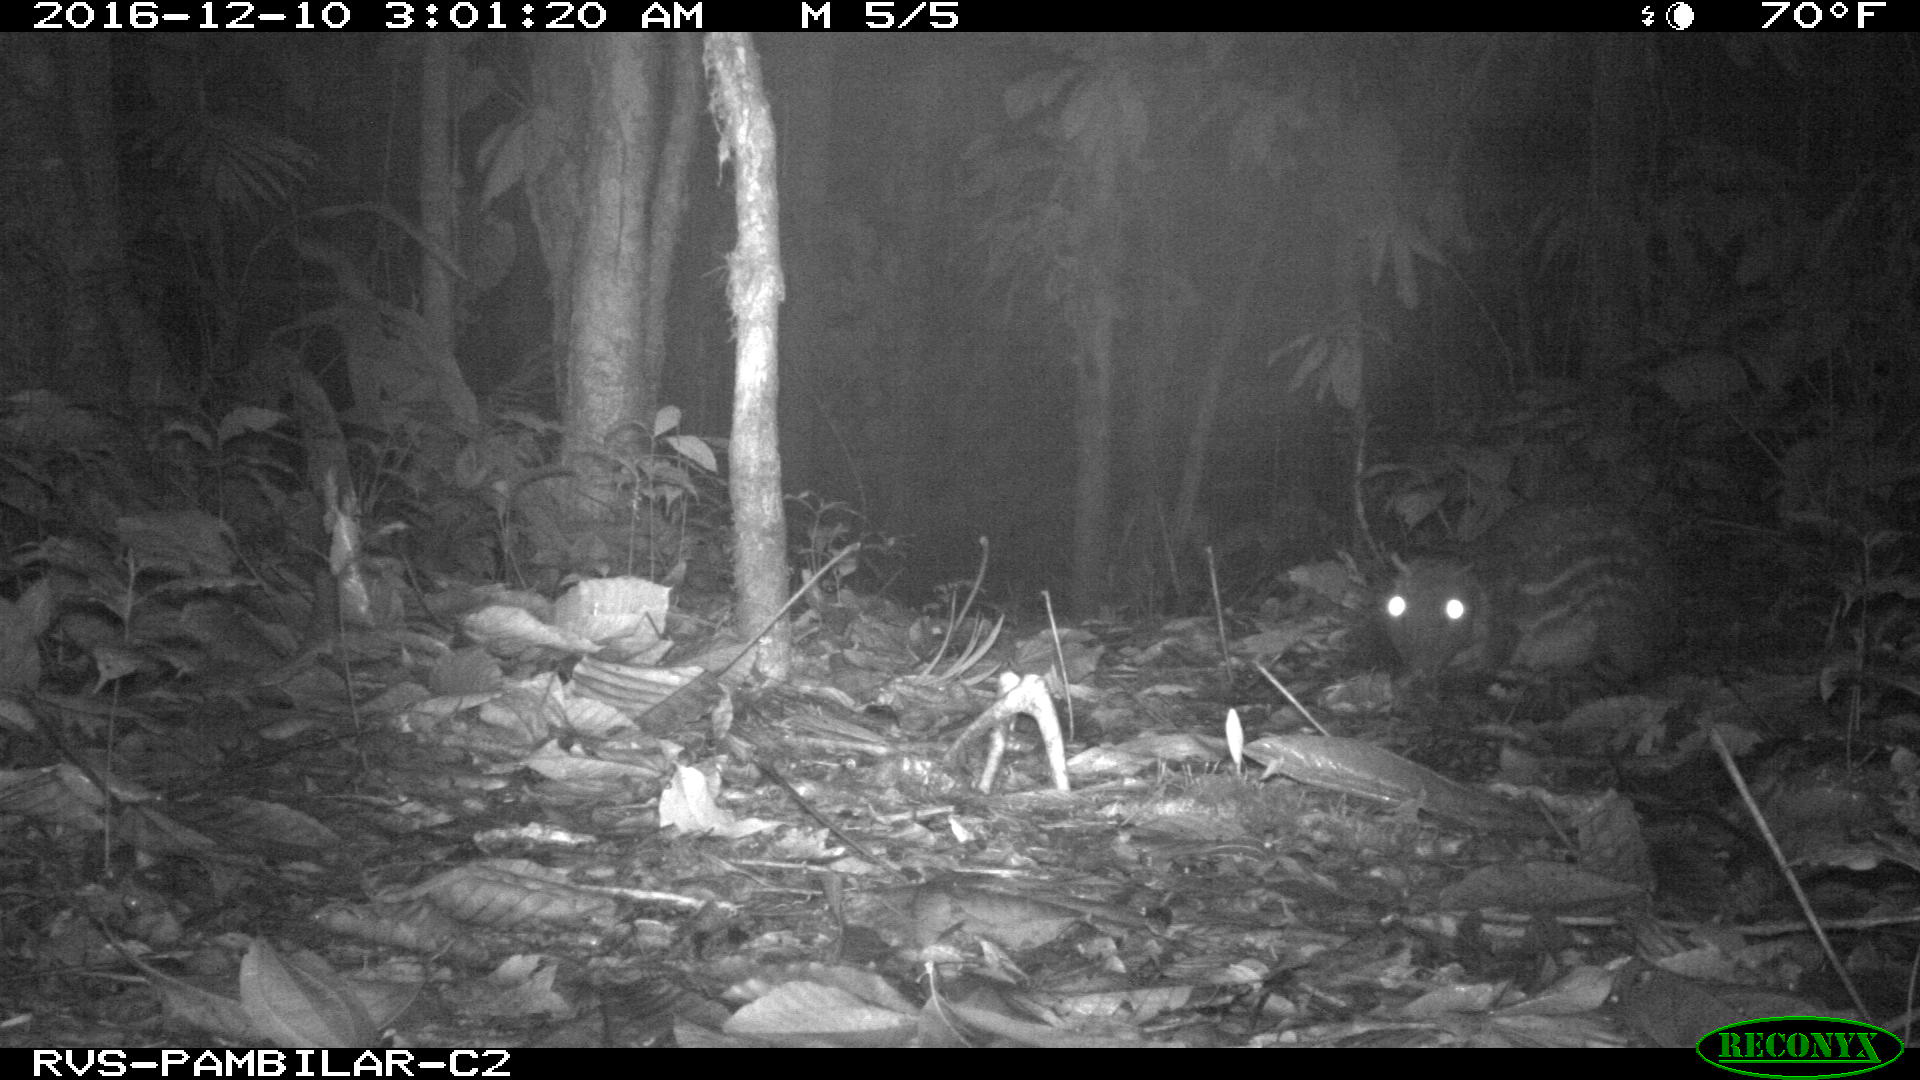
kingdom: Animalia
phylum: Chordata
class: Mammalia
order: Rodentia
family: Dasyproctidae
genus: Dasyprocta
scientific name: Dasyprocta punctata
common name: Central american agouti
